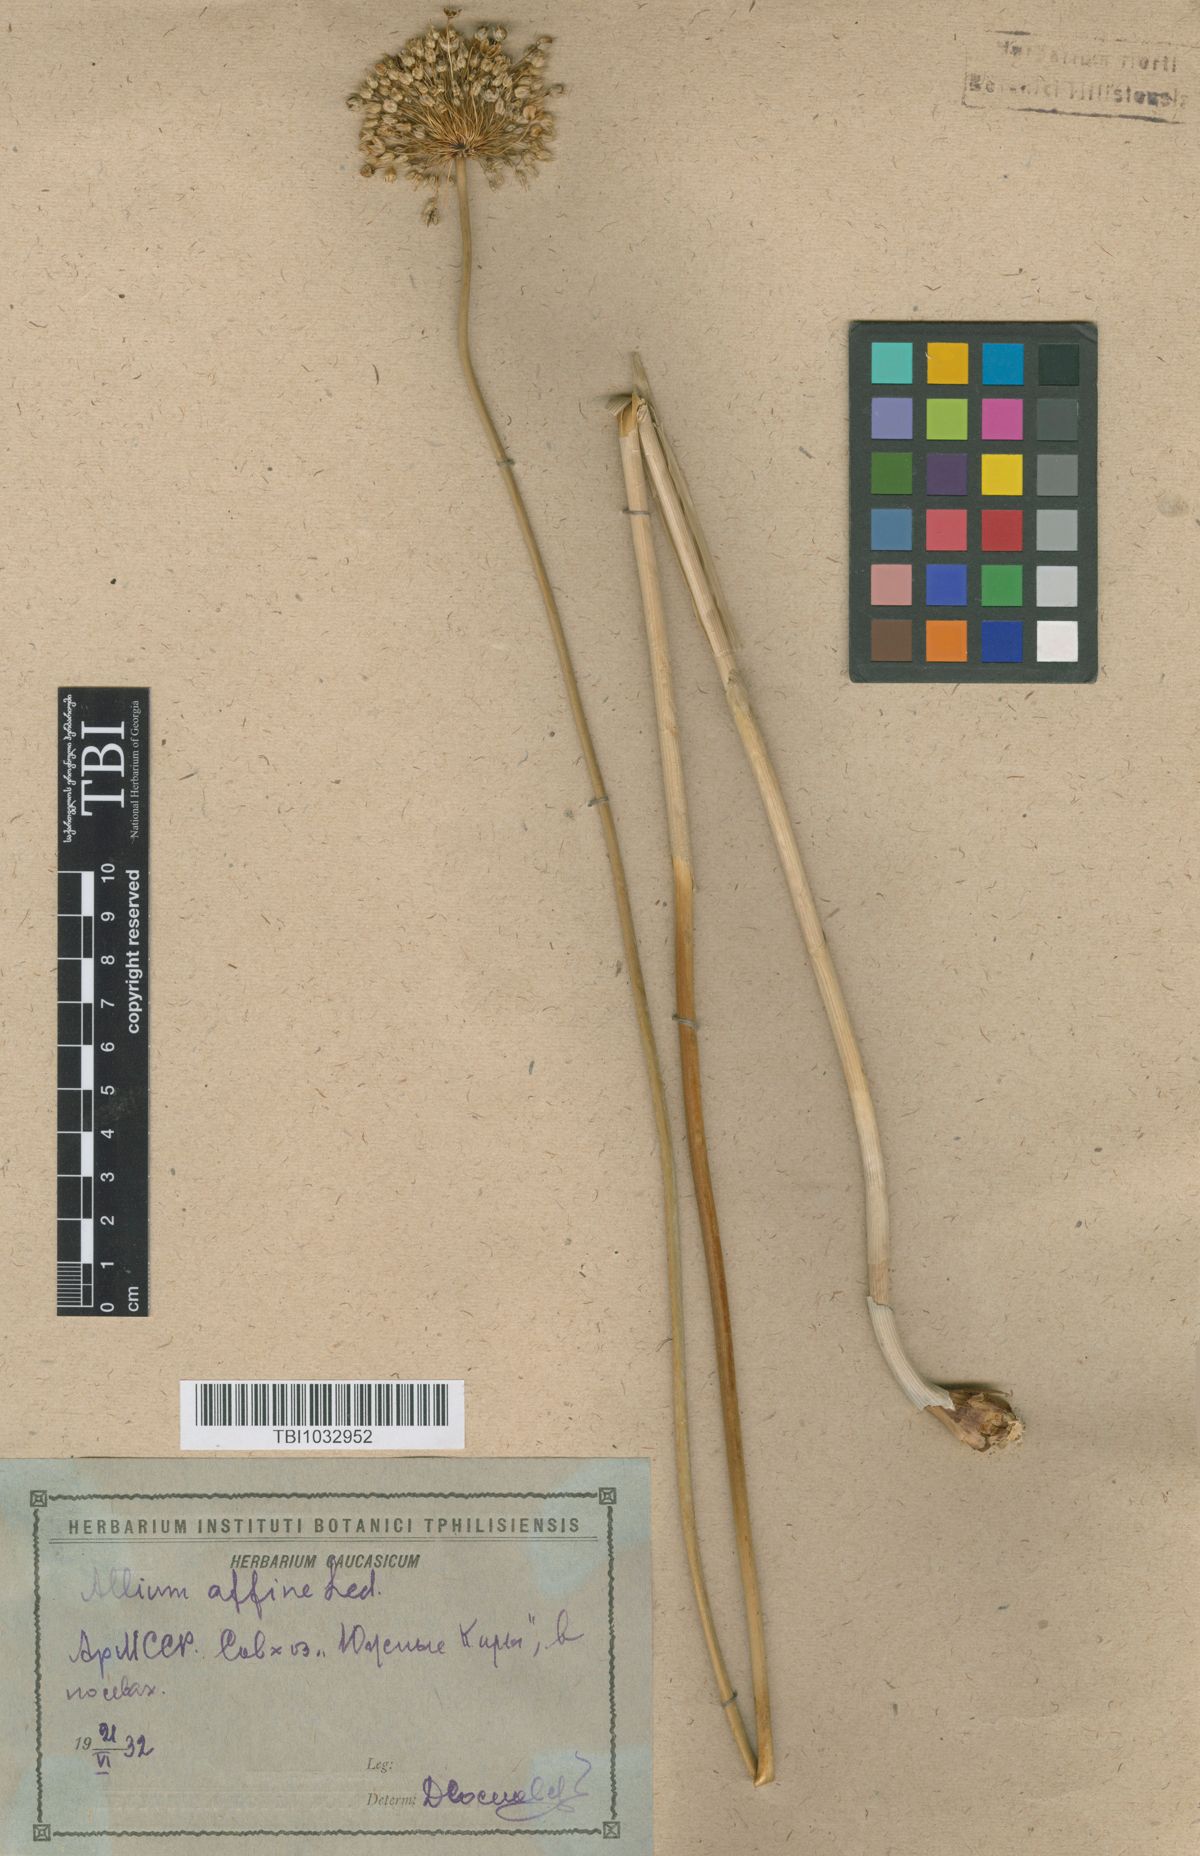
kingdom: Plantae
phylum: Tracheophyta
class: Liliopsida
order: Asparagales
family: Amaryllidaceae
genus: Allium
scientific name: Allium affine
